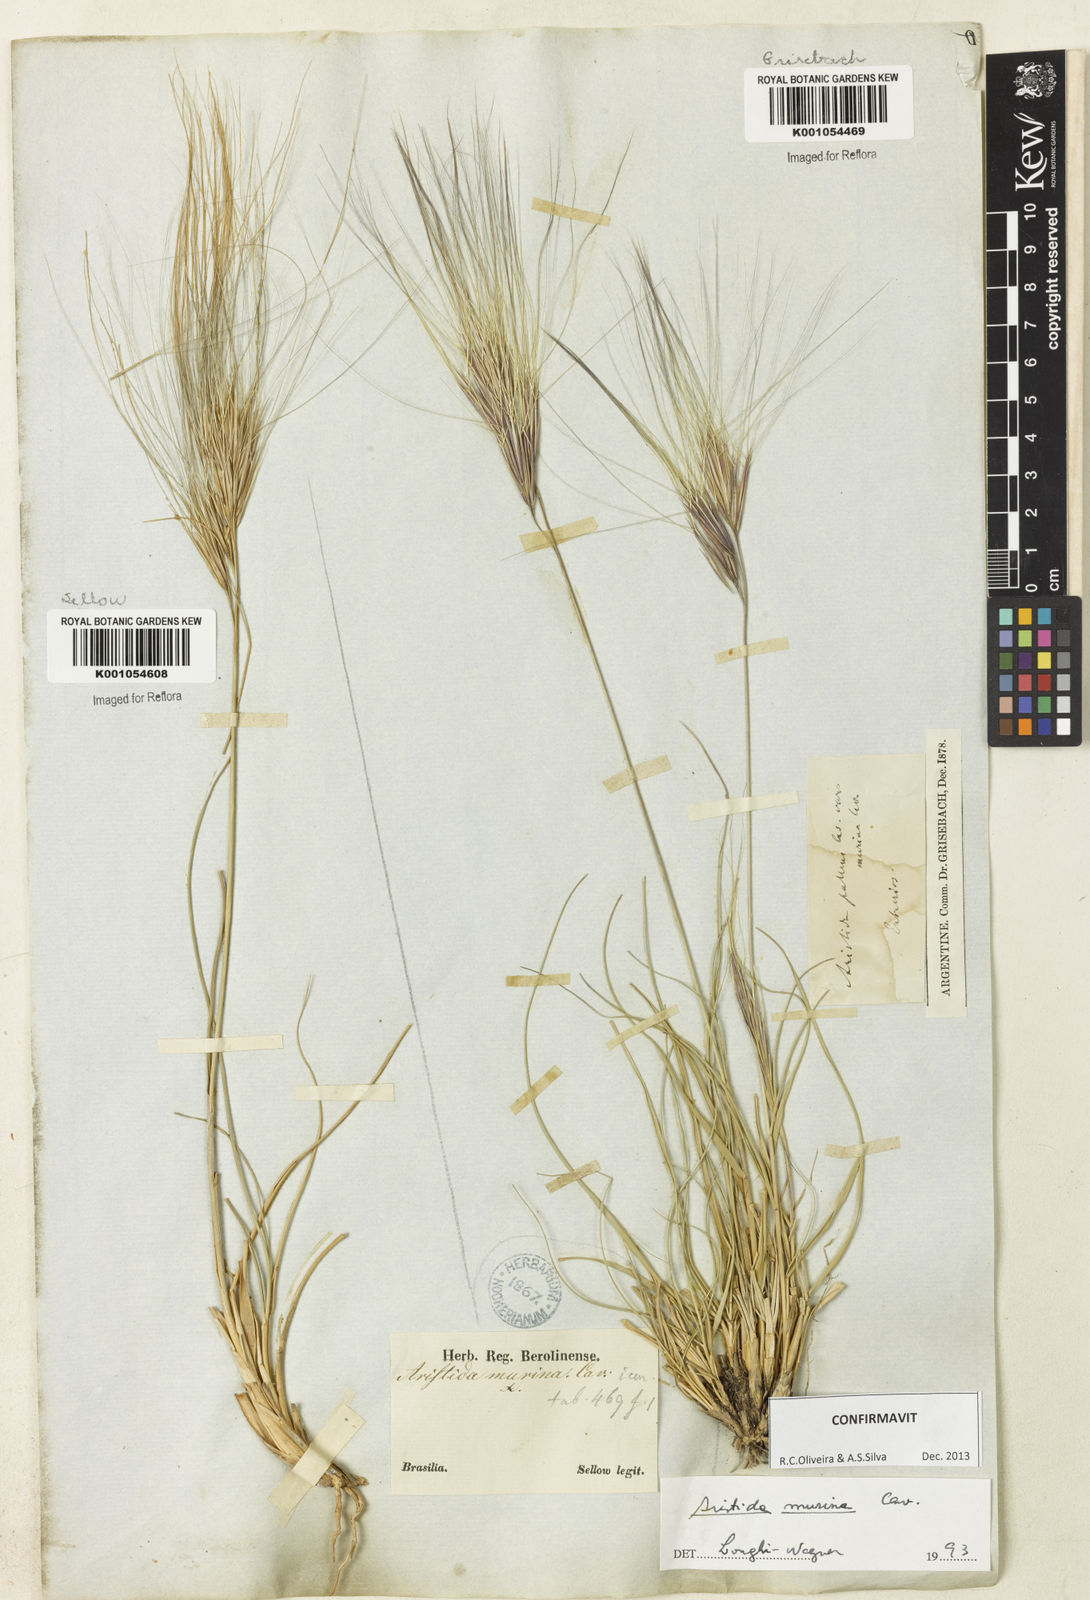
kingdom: Plantae
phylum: Tracheophyta
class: Liliopsida
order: Poales
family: Poaceae
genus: Aristida
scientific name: Aristida murina
